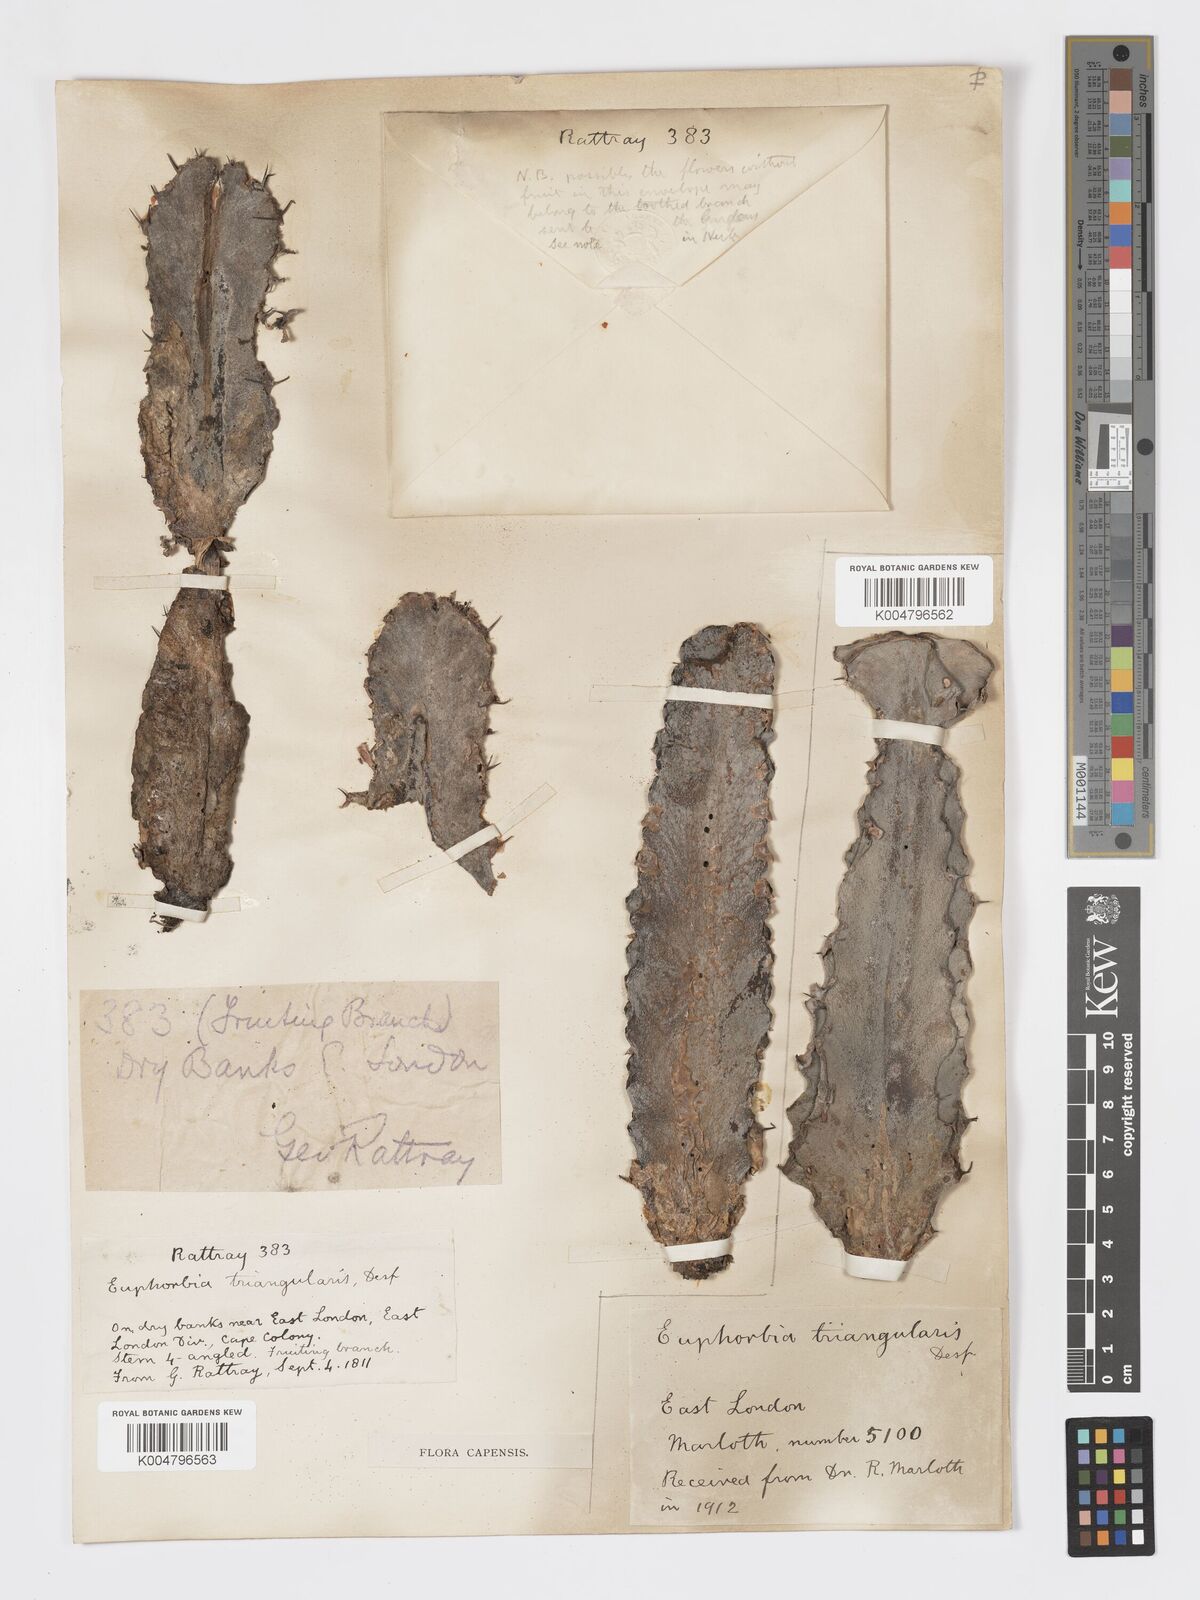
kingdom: Plantae
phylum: Tracheophyta
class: Magnoliopsida
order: Malpighiales
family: Euphorbiaceae
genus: Euphorbia
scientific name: Euphorbia triangularis
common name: Chandelier tree
